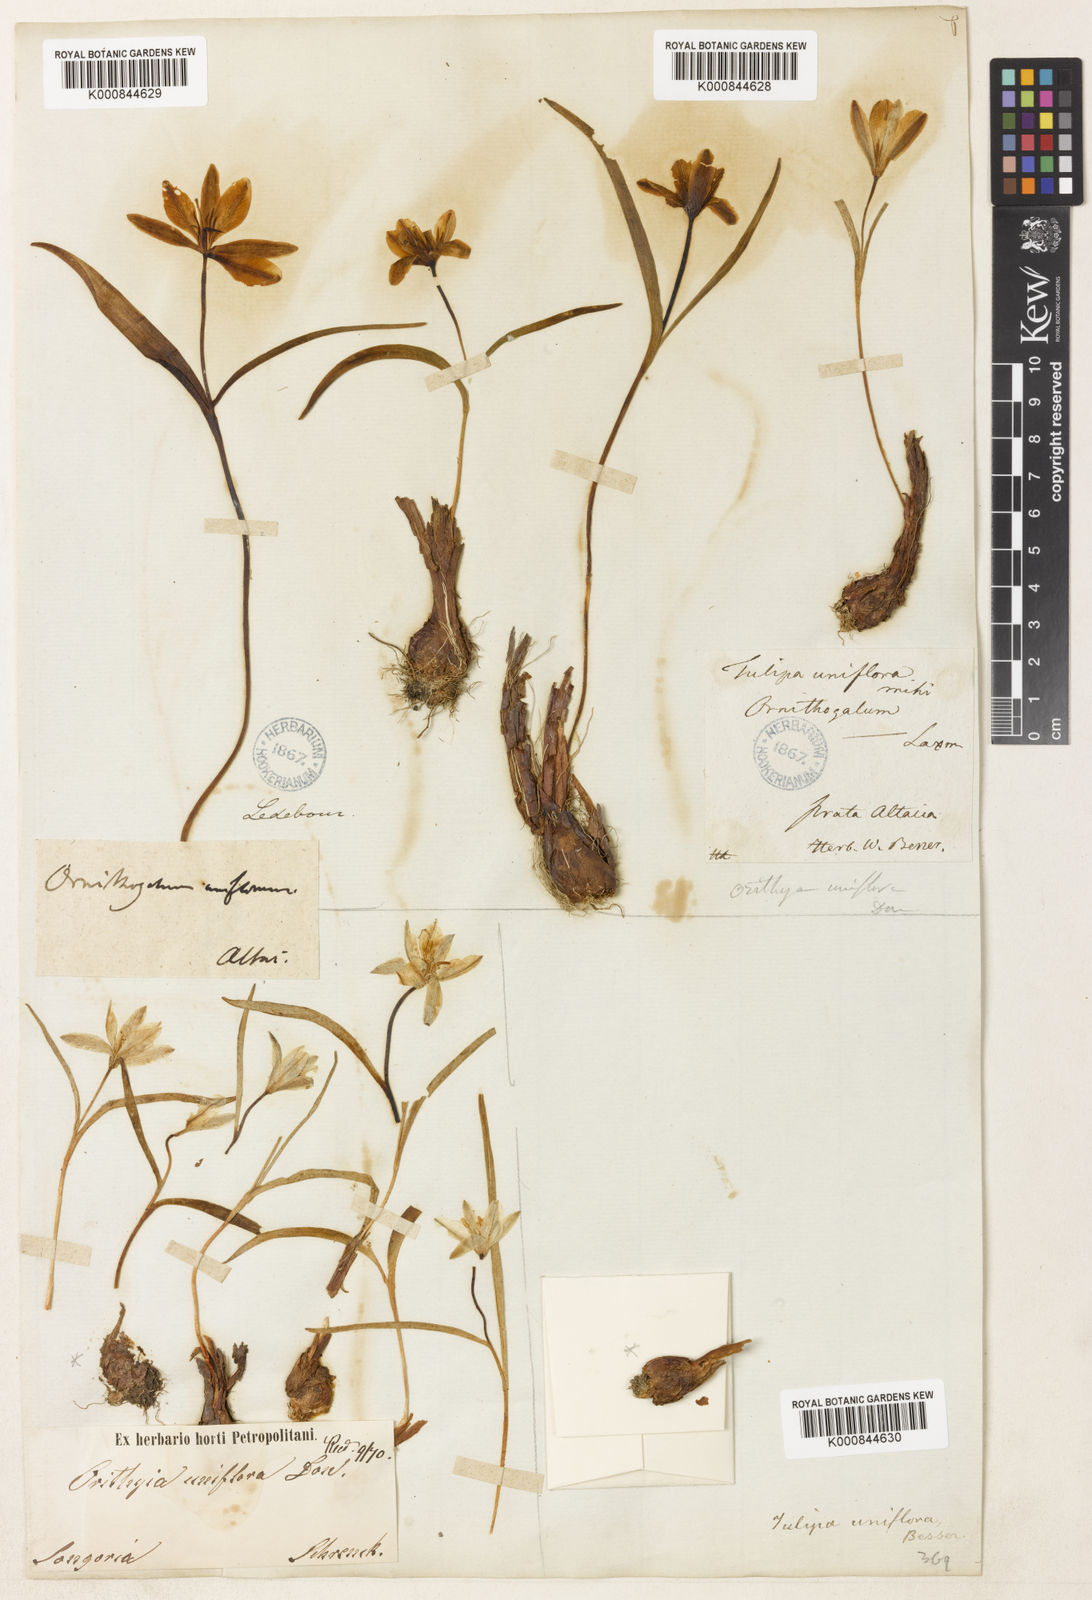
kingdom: Plantae
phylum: Tracheophyta
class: Liliopsida
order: Liliales
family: Liliaceae
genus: Tulipa
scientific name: Tulipa uniflora
